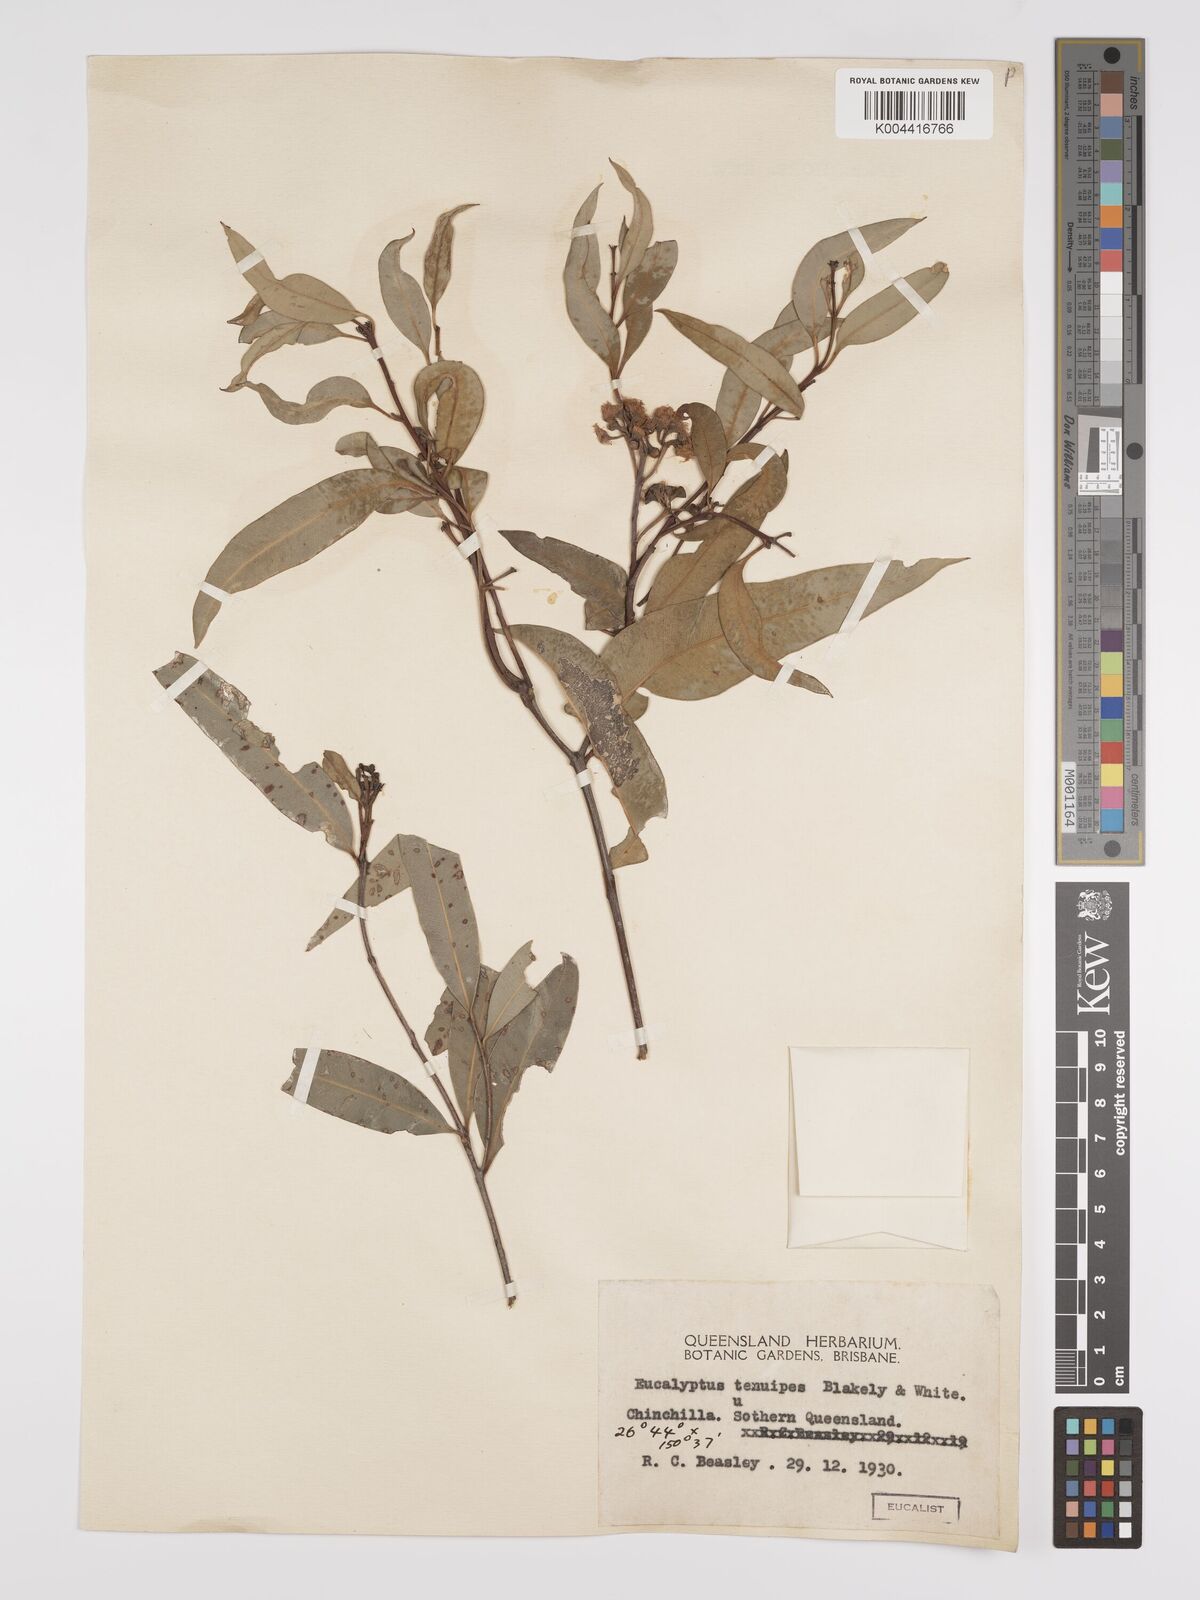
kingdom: Plantae
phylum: Tracheophyta
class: Magnoliopsida
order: Myrtales
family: Myrtaceae
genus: Eucalyptus
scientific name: Eucalyptus tenuipes
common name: Narrow-leaved white mahogany
